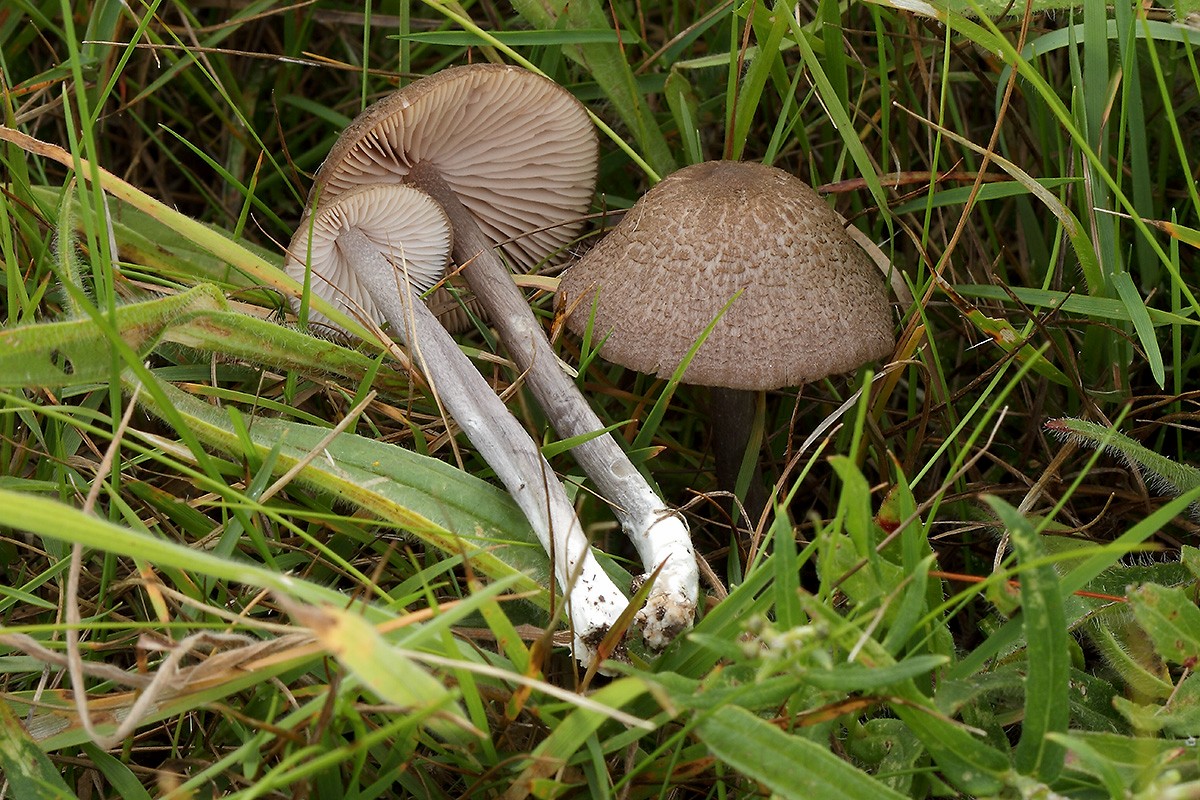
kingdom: Fungi
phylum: Basidiomycota
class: Agaricomycetes
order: Agaricales
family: Entolomataceae
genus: Entoloma
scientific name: Entoloma griseocyaneum
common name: gråblå rødblad
